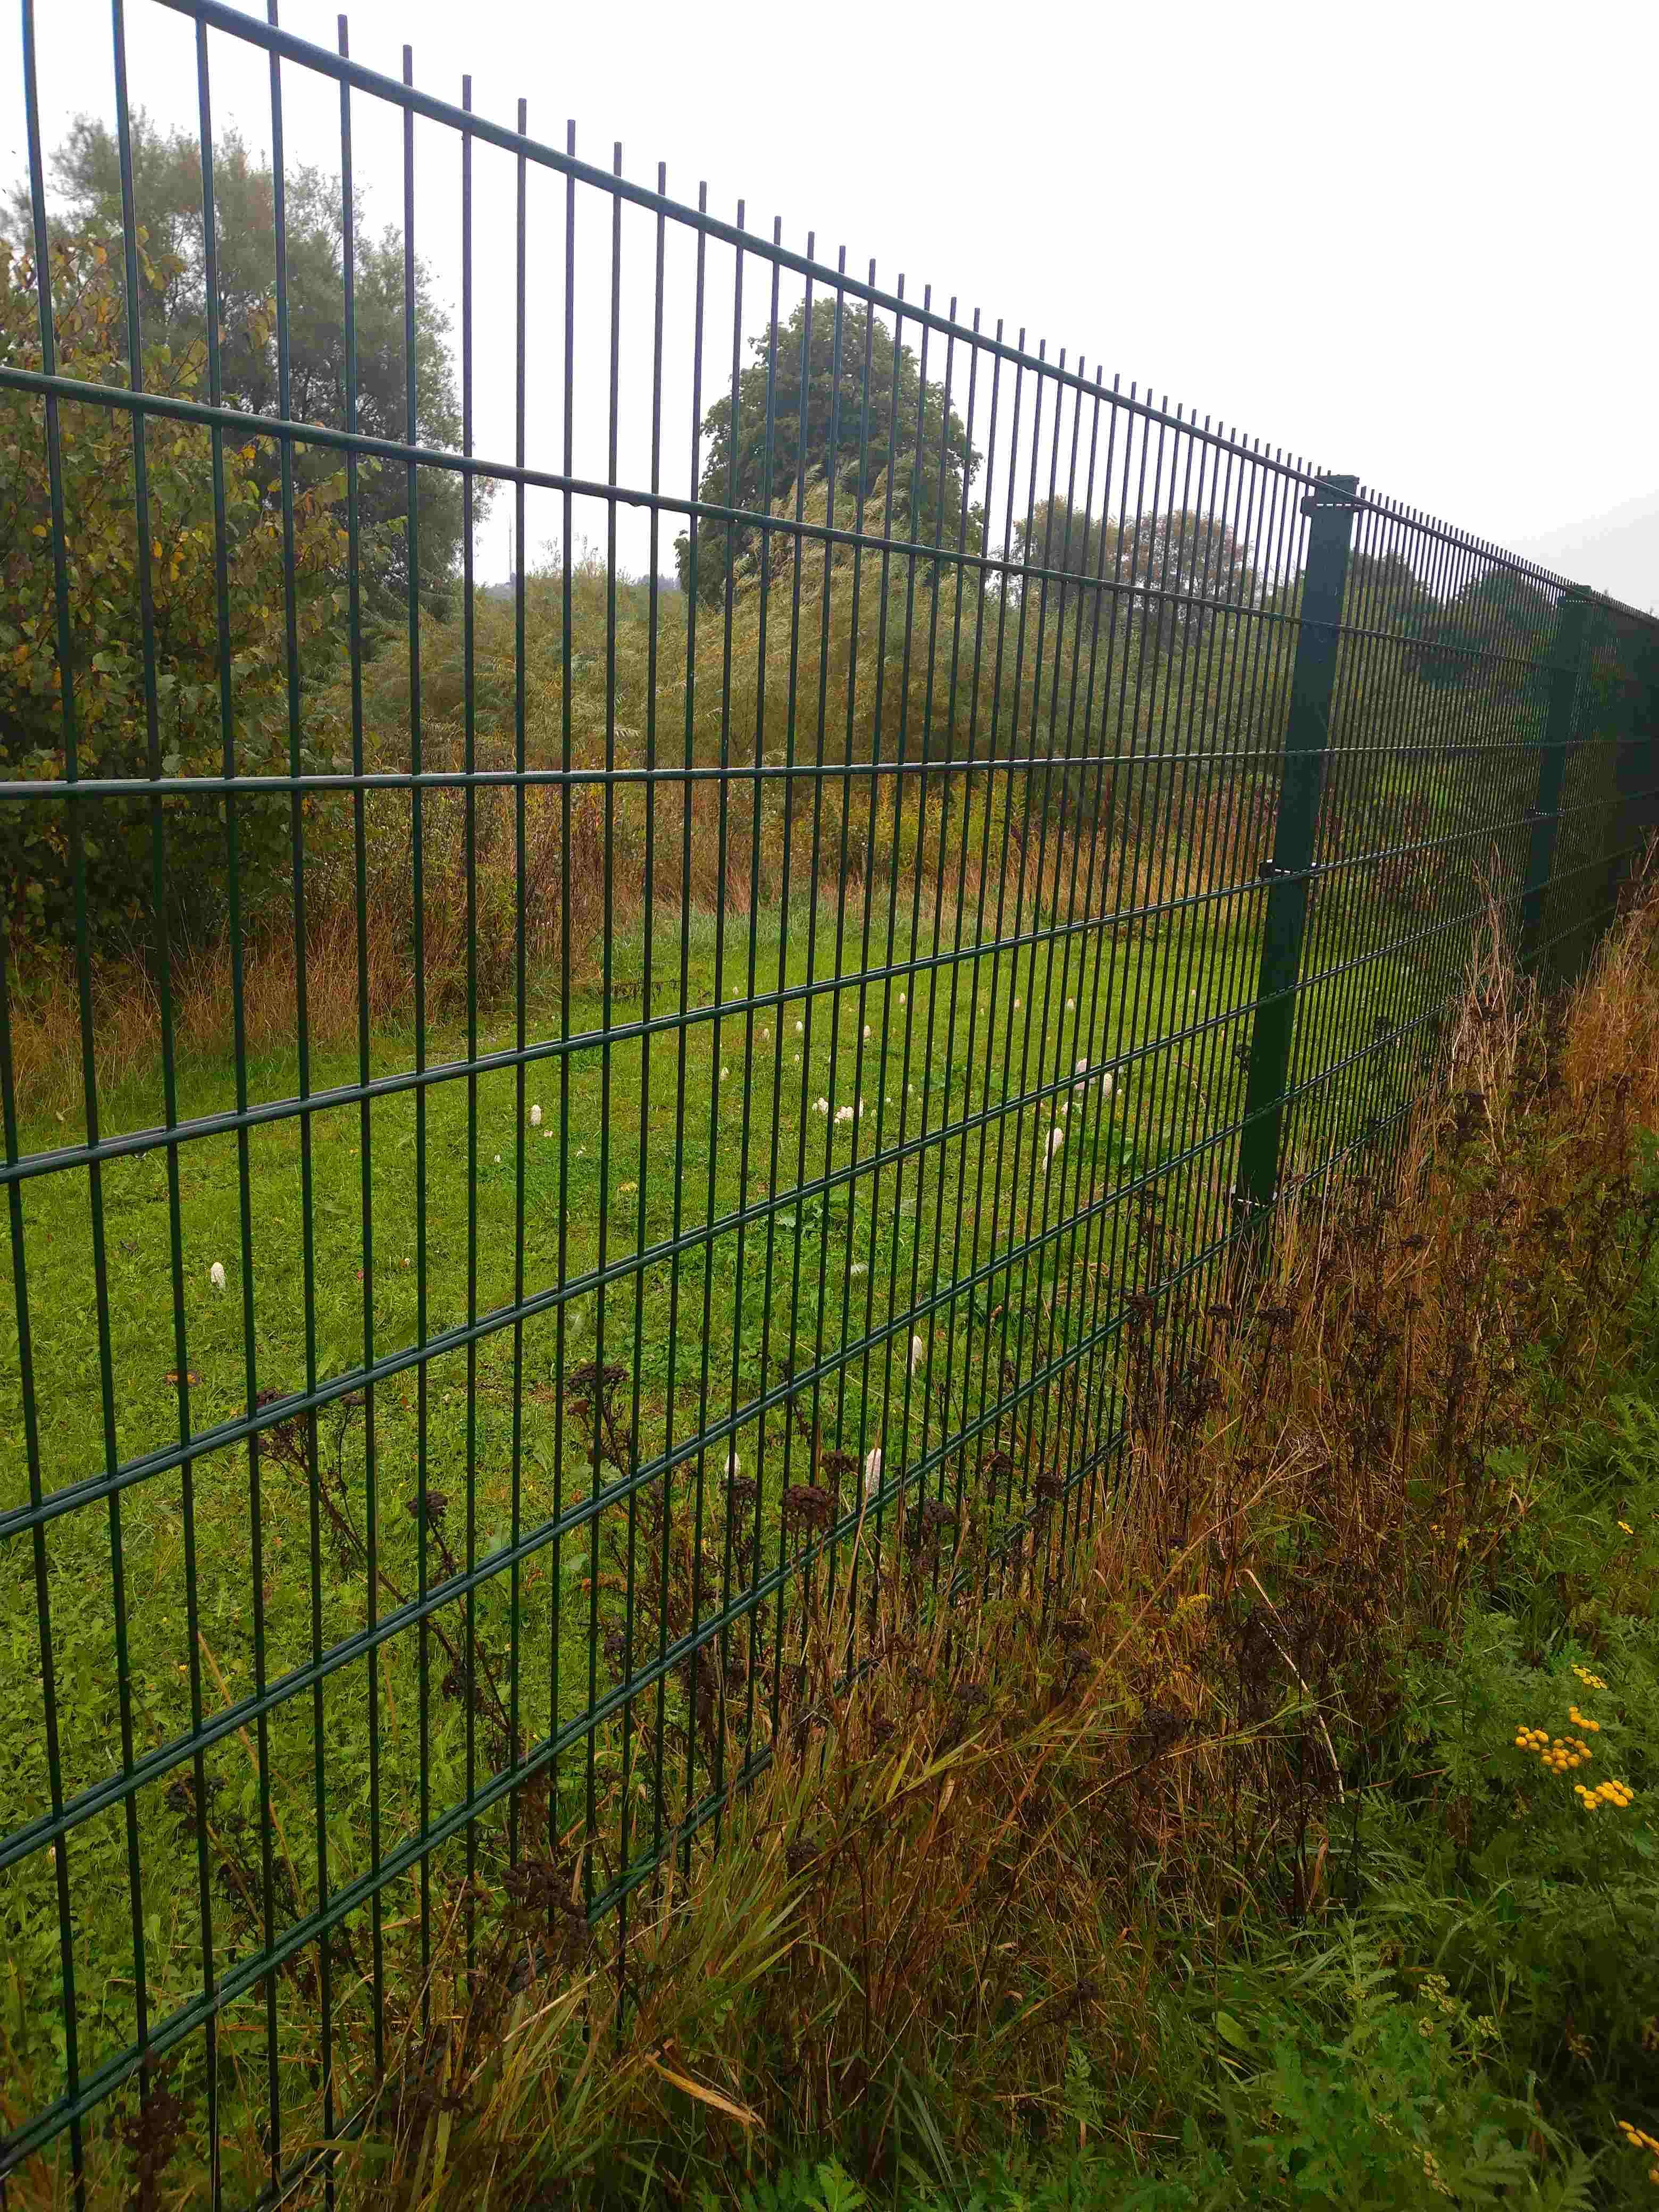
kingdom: Fungi
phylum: Basidiomycota
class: Agaricomycetes
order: Agaricales
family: Agaricaceae
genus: Coprinus
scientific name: Coprinus comatus
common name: stor parykhat
